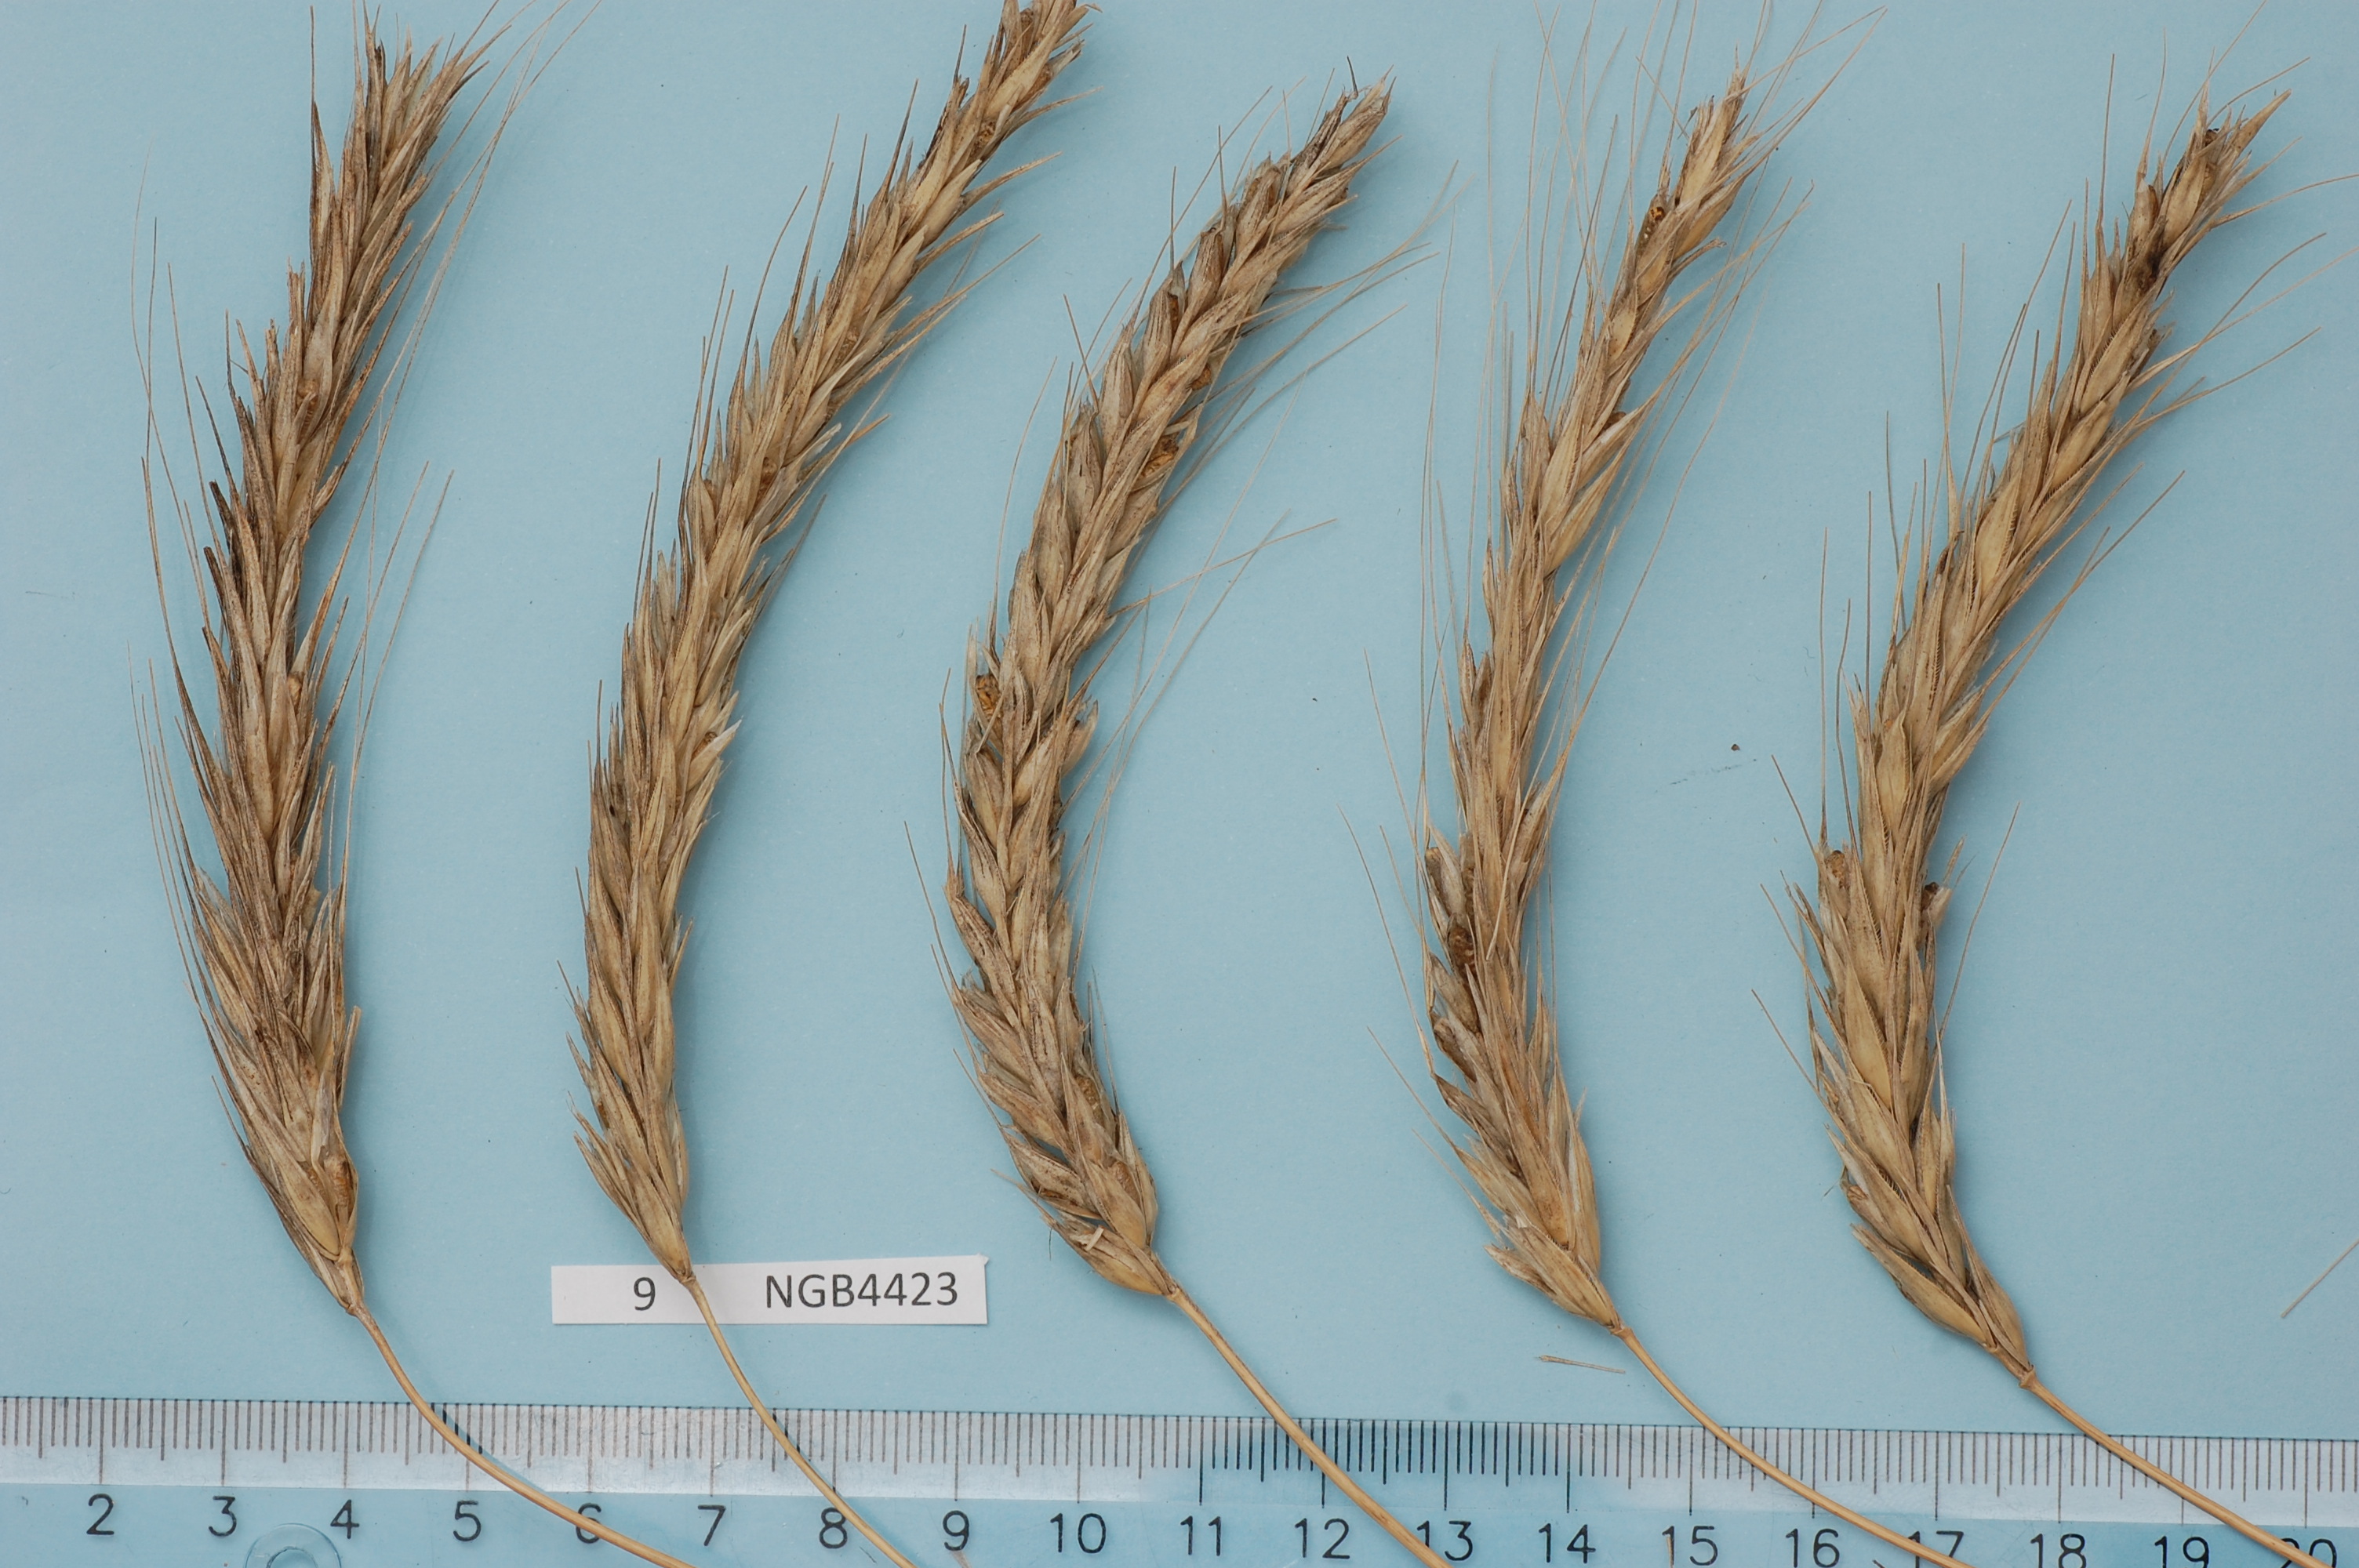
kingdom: Plantae
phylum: Tracheophyta
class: Liliopsida
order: Poales
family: Poaceae
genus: Secale
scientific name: Secale cereale
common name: Rye
